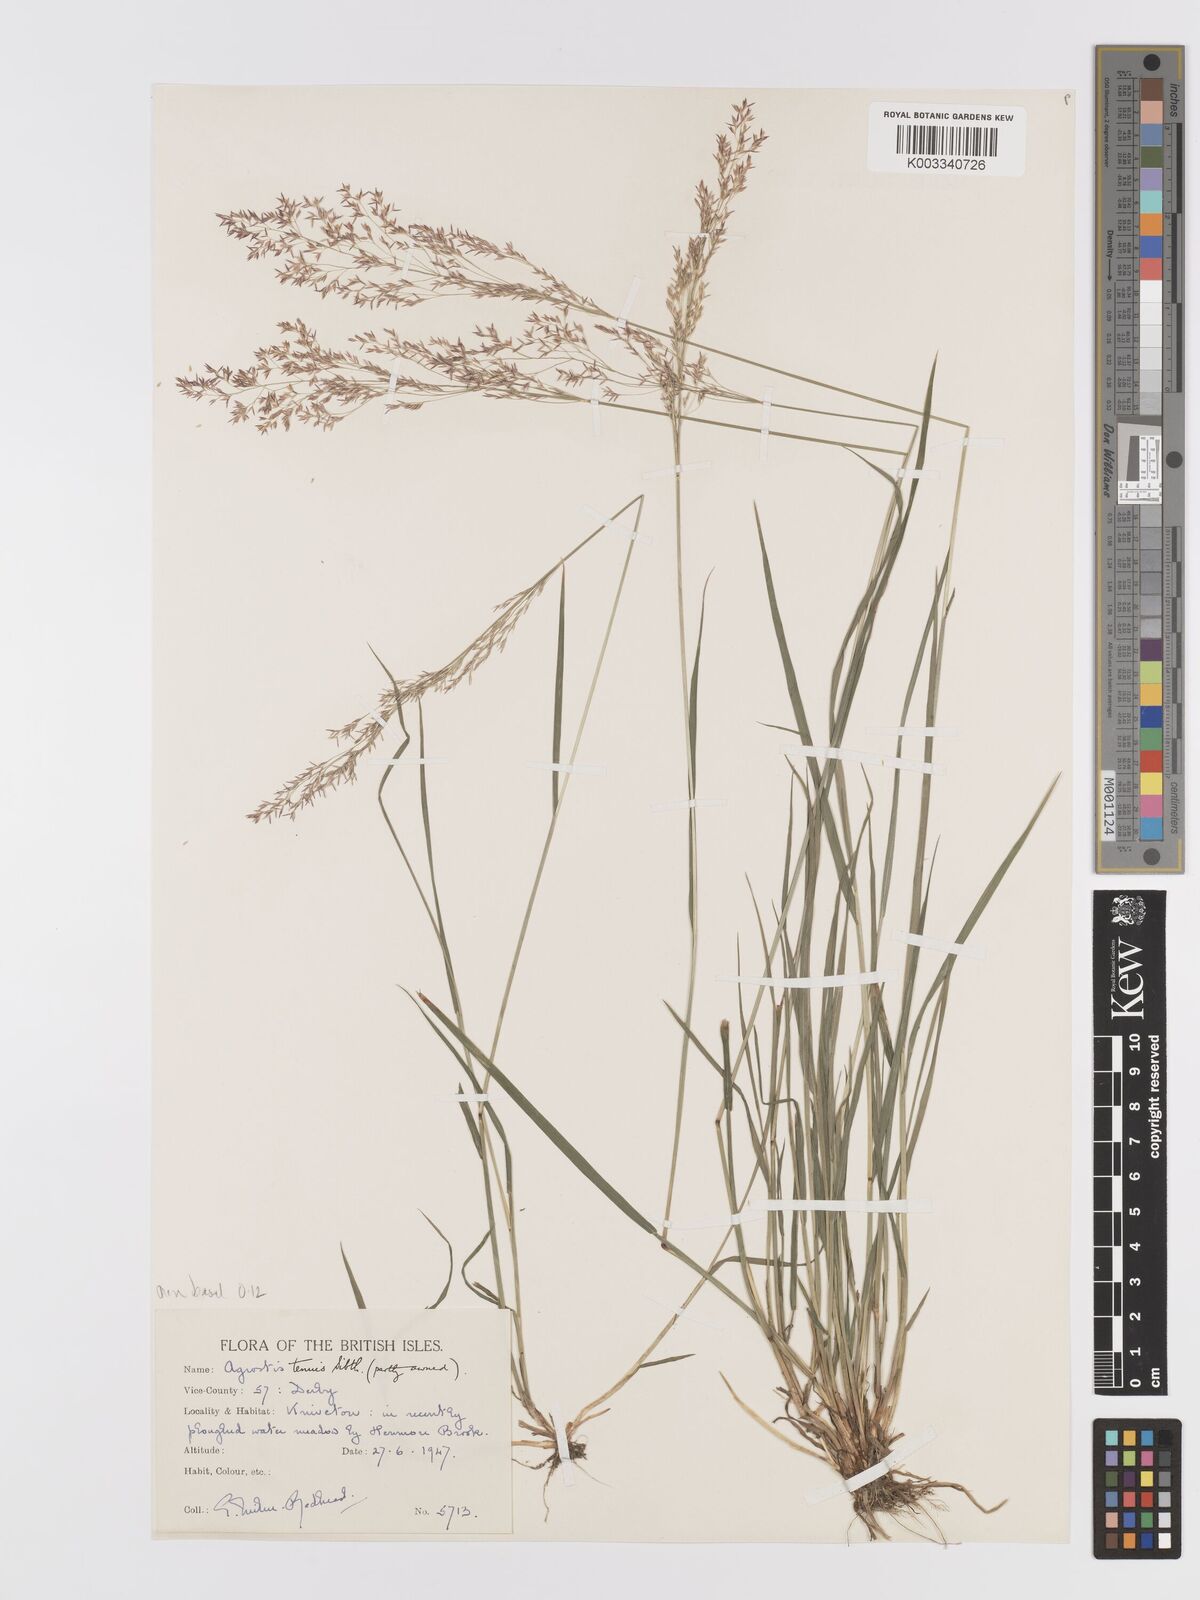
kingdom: Plantae
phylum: Tracheophyta
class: Liliopsida
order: Poales
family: Poaceae
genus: Agrostis
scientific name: Agrostis capillaris
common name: Colonial bentgrass
